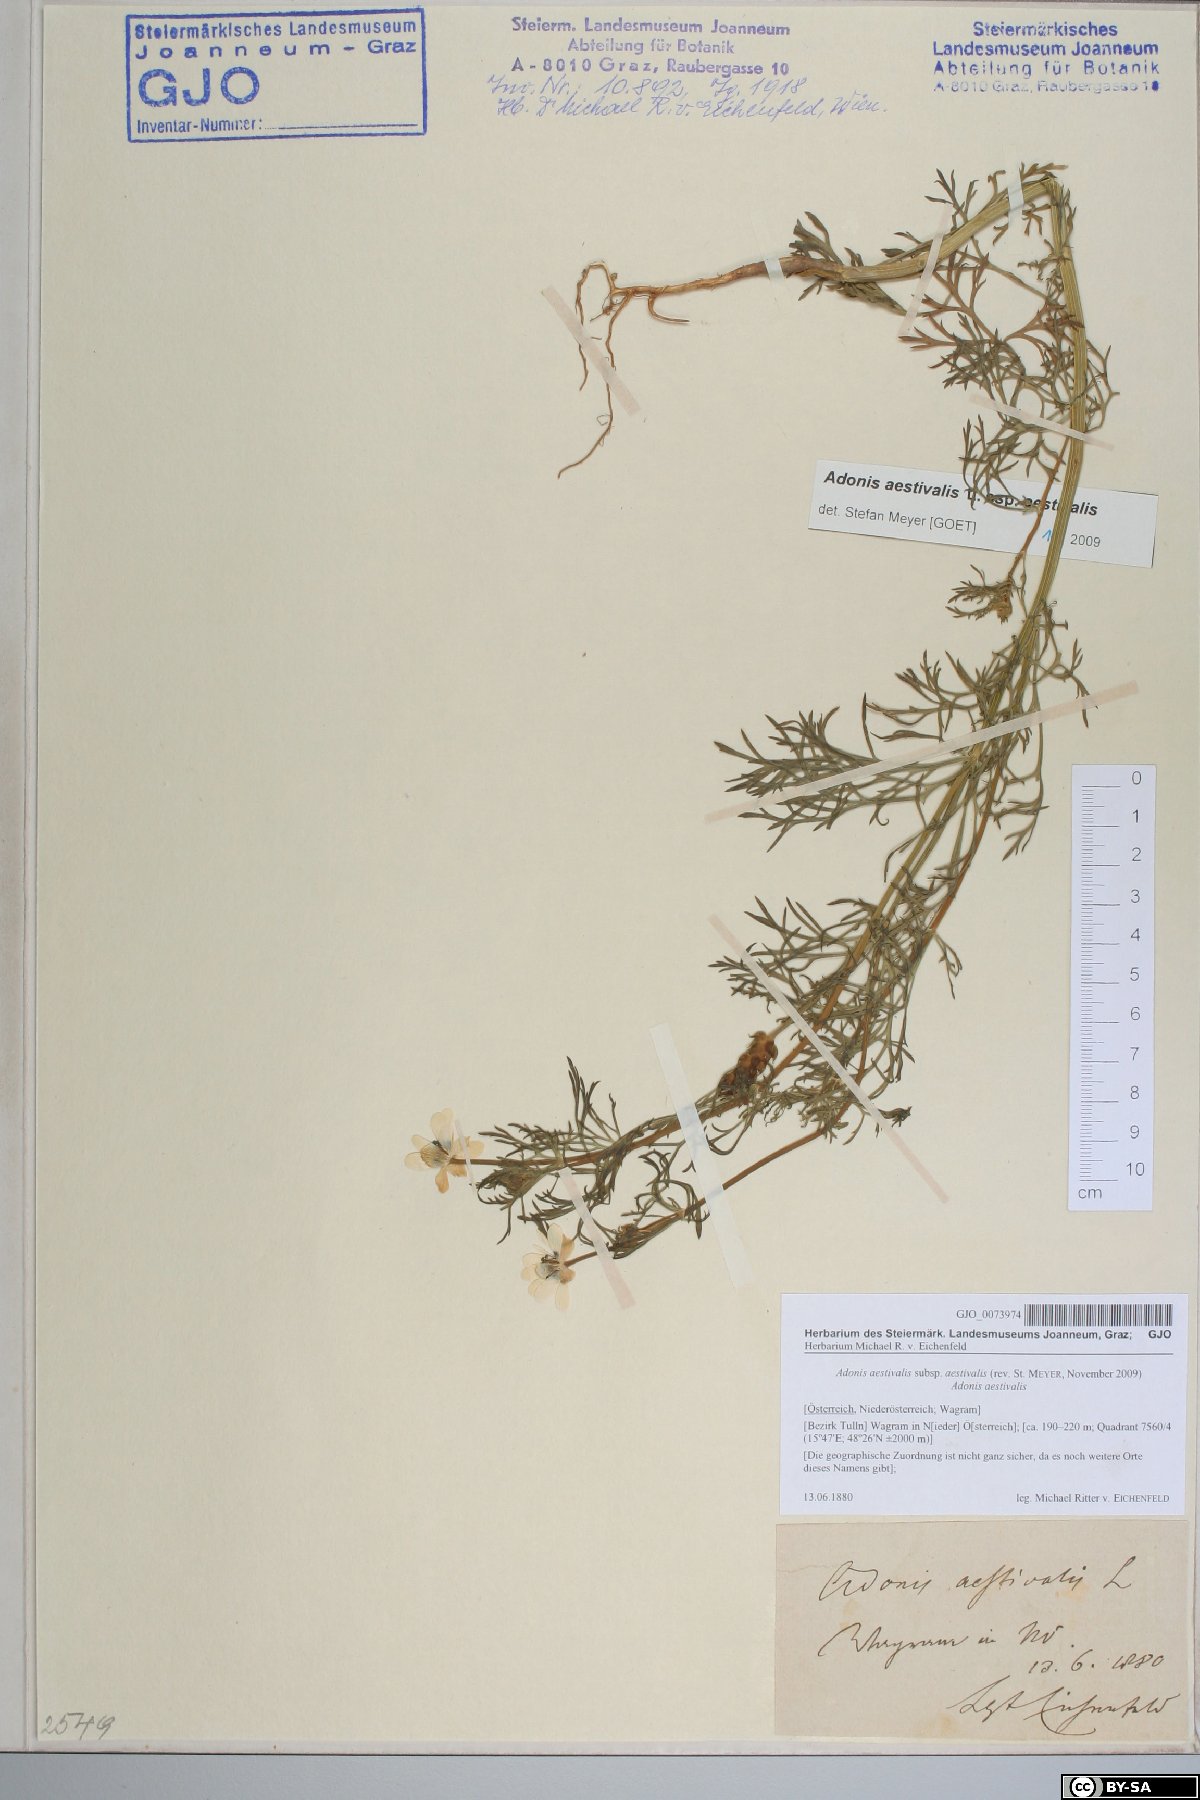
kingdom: Plantae
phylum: Tracheophyta
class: Magnoliopsida
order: Ranunculales
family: Ranunculaceae
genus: Adonis
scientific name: Adonis aestivalis
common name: Summer pheasant's-eye
